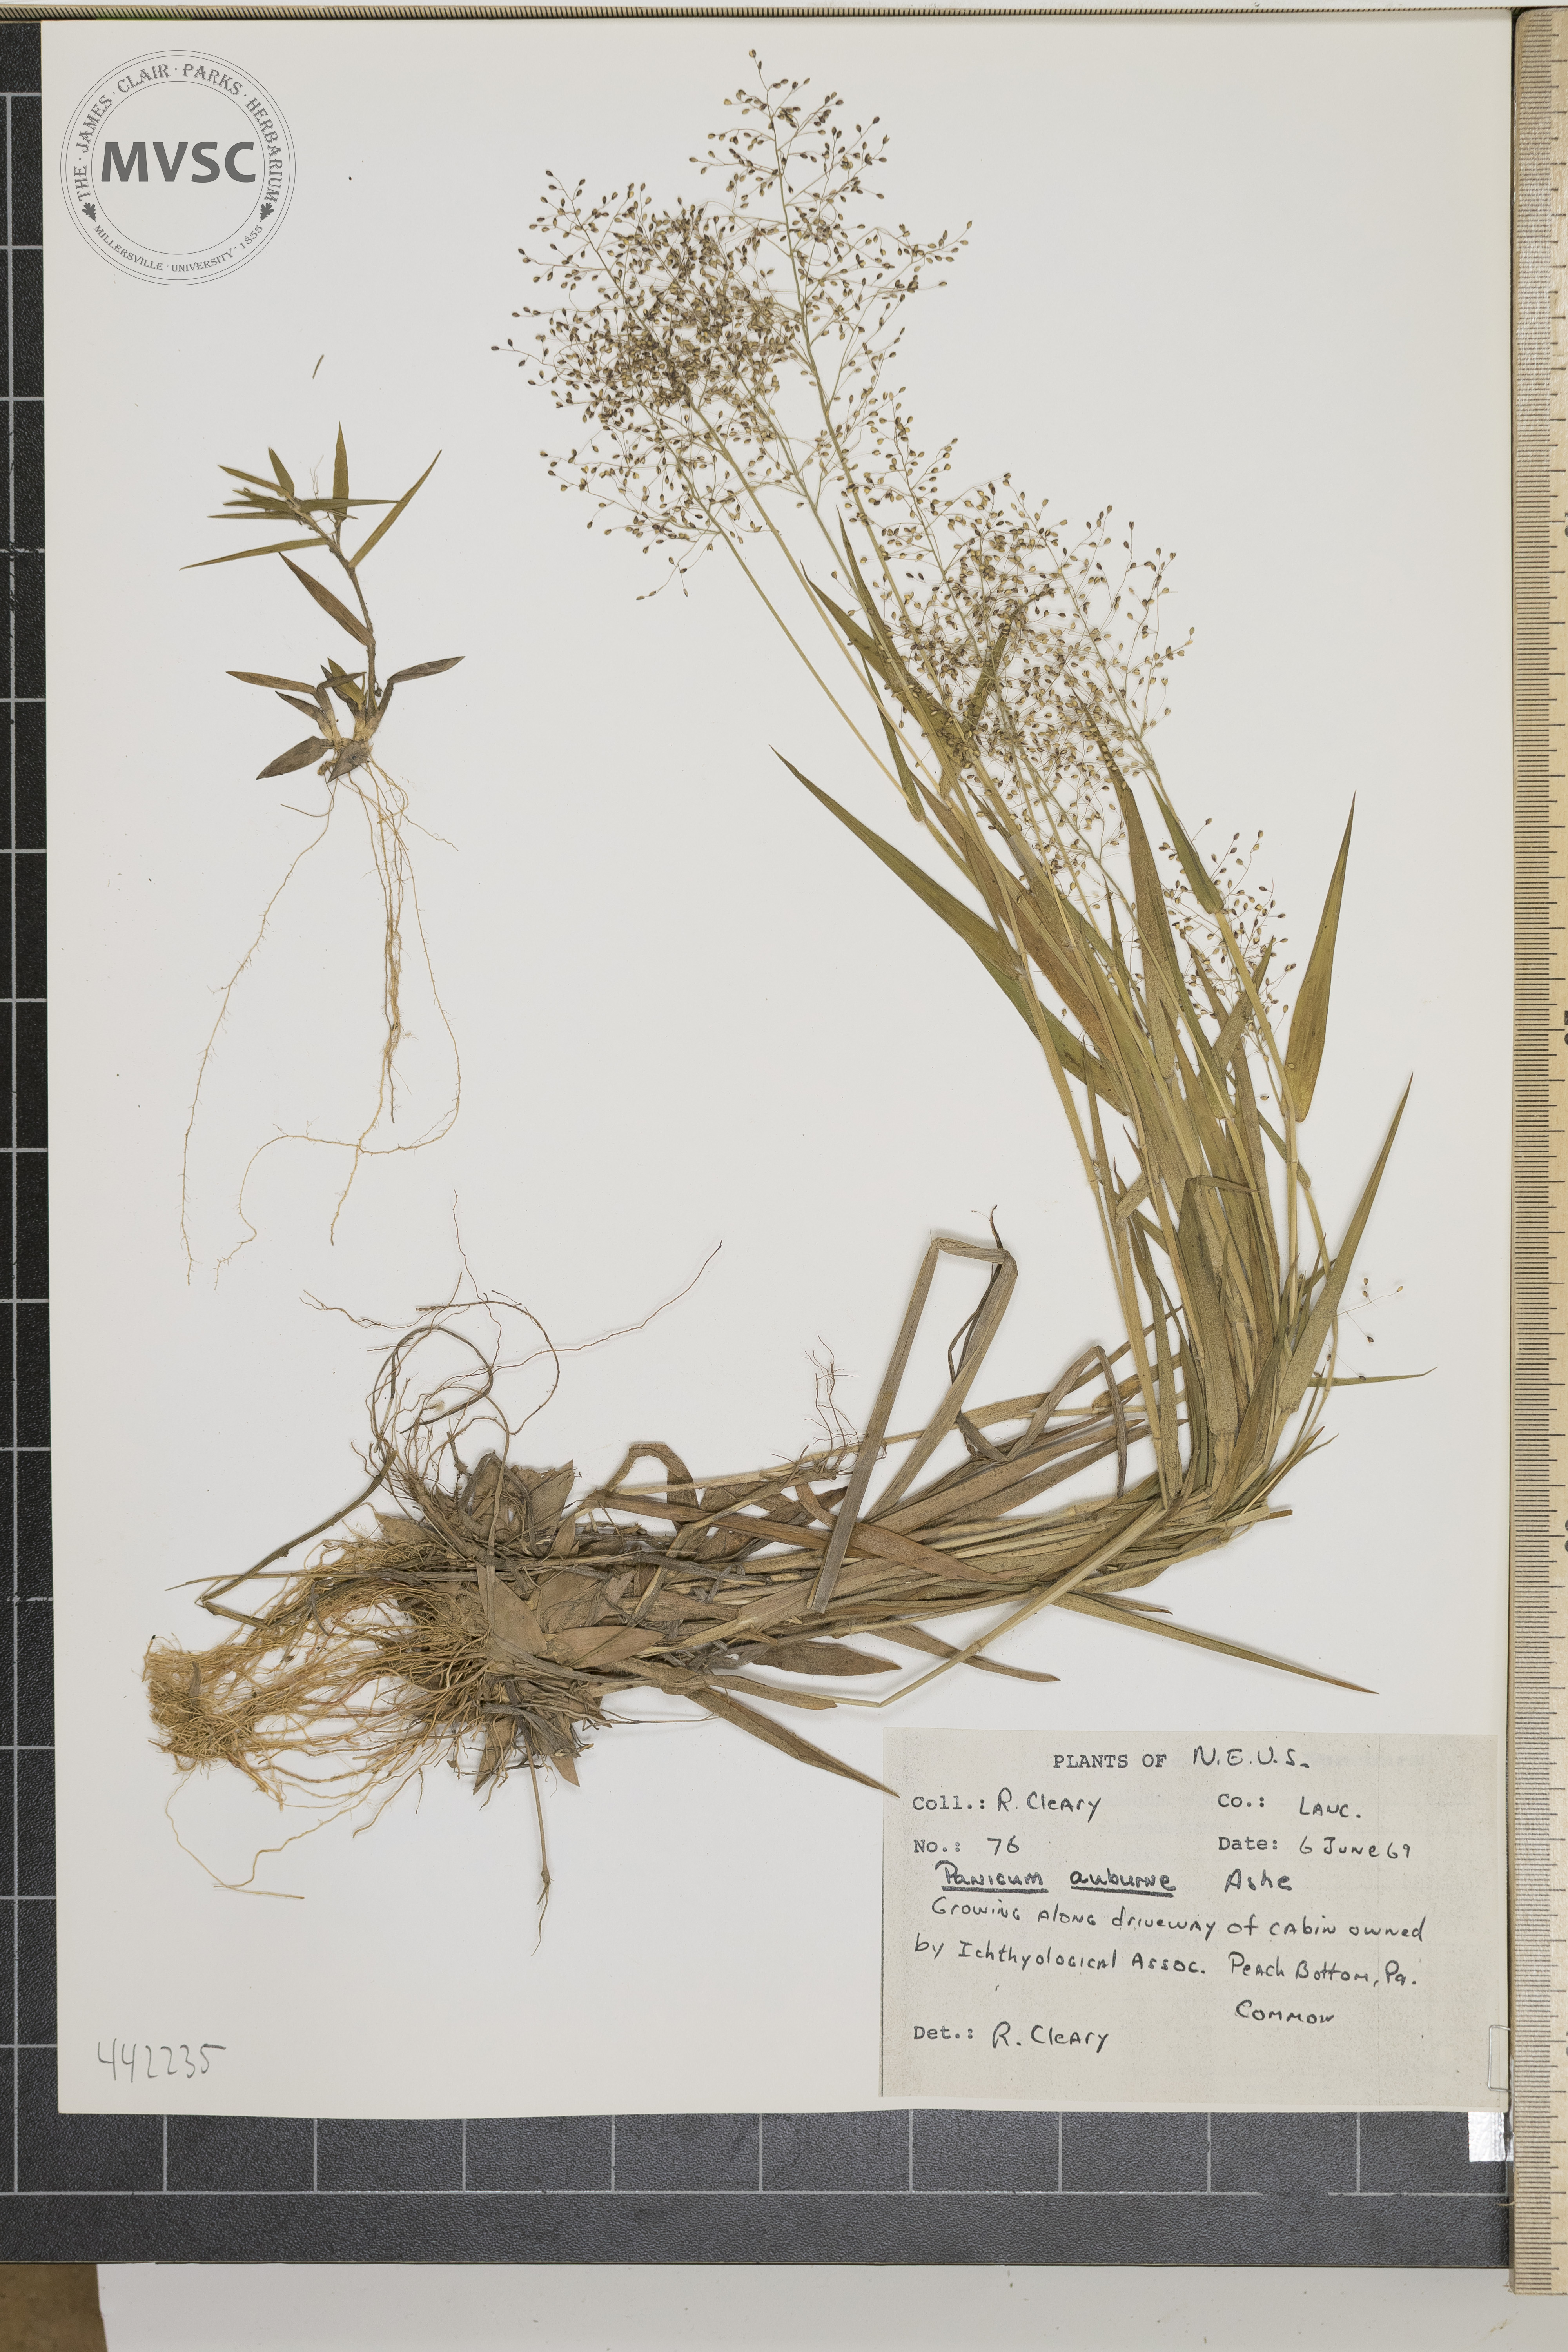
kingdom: Plantae
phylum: Tracheophyta
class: Liliopsida
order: Poales
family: Poaceae
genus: Dichanthelium
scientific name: Dichanthelium acuminatum
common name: Hairy panic grass
